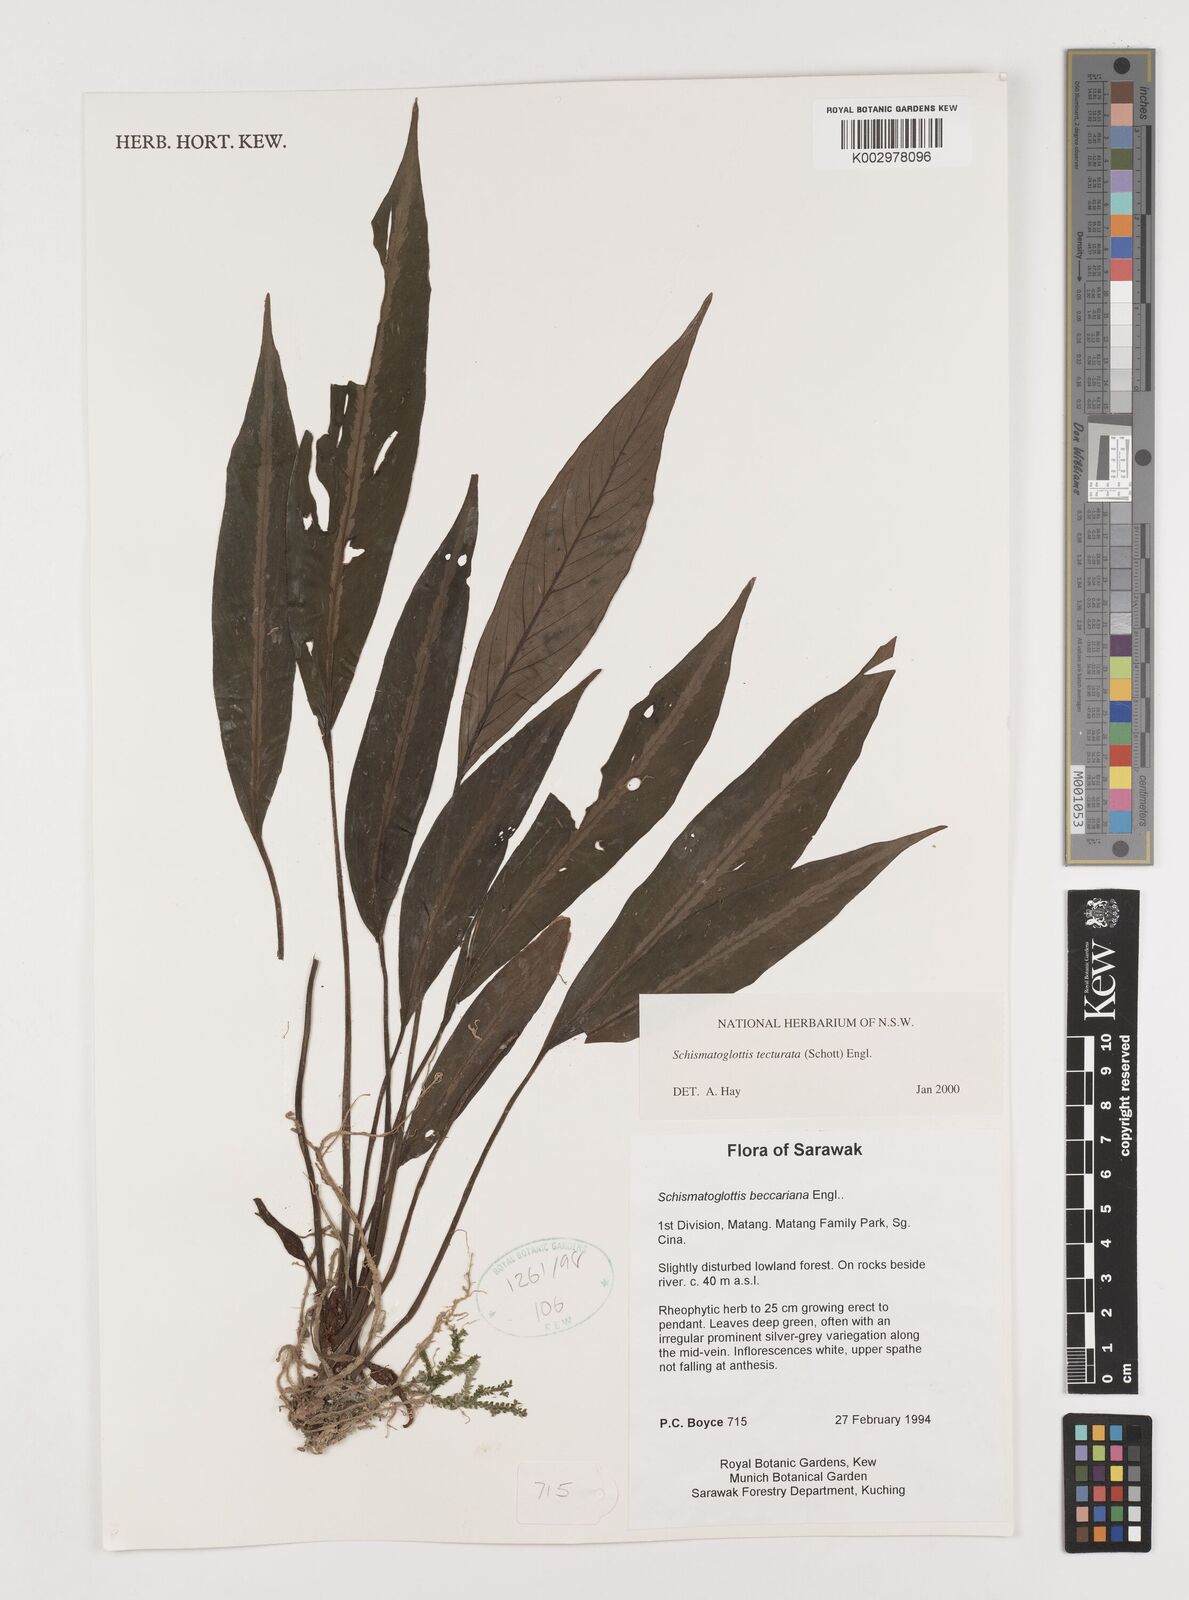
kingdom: Plantae
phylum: Tracheophyta
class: Liliopsida
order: Zingiberales
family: Costaceae
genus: Colobogynium
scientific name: Colobogynium variegatum
